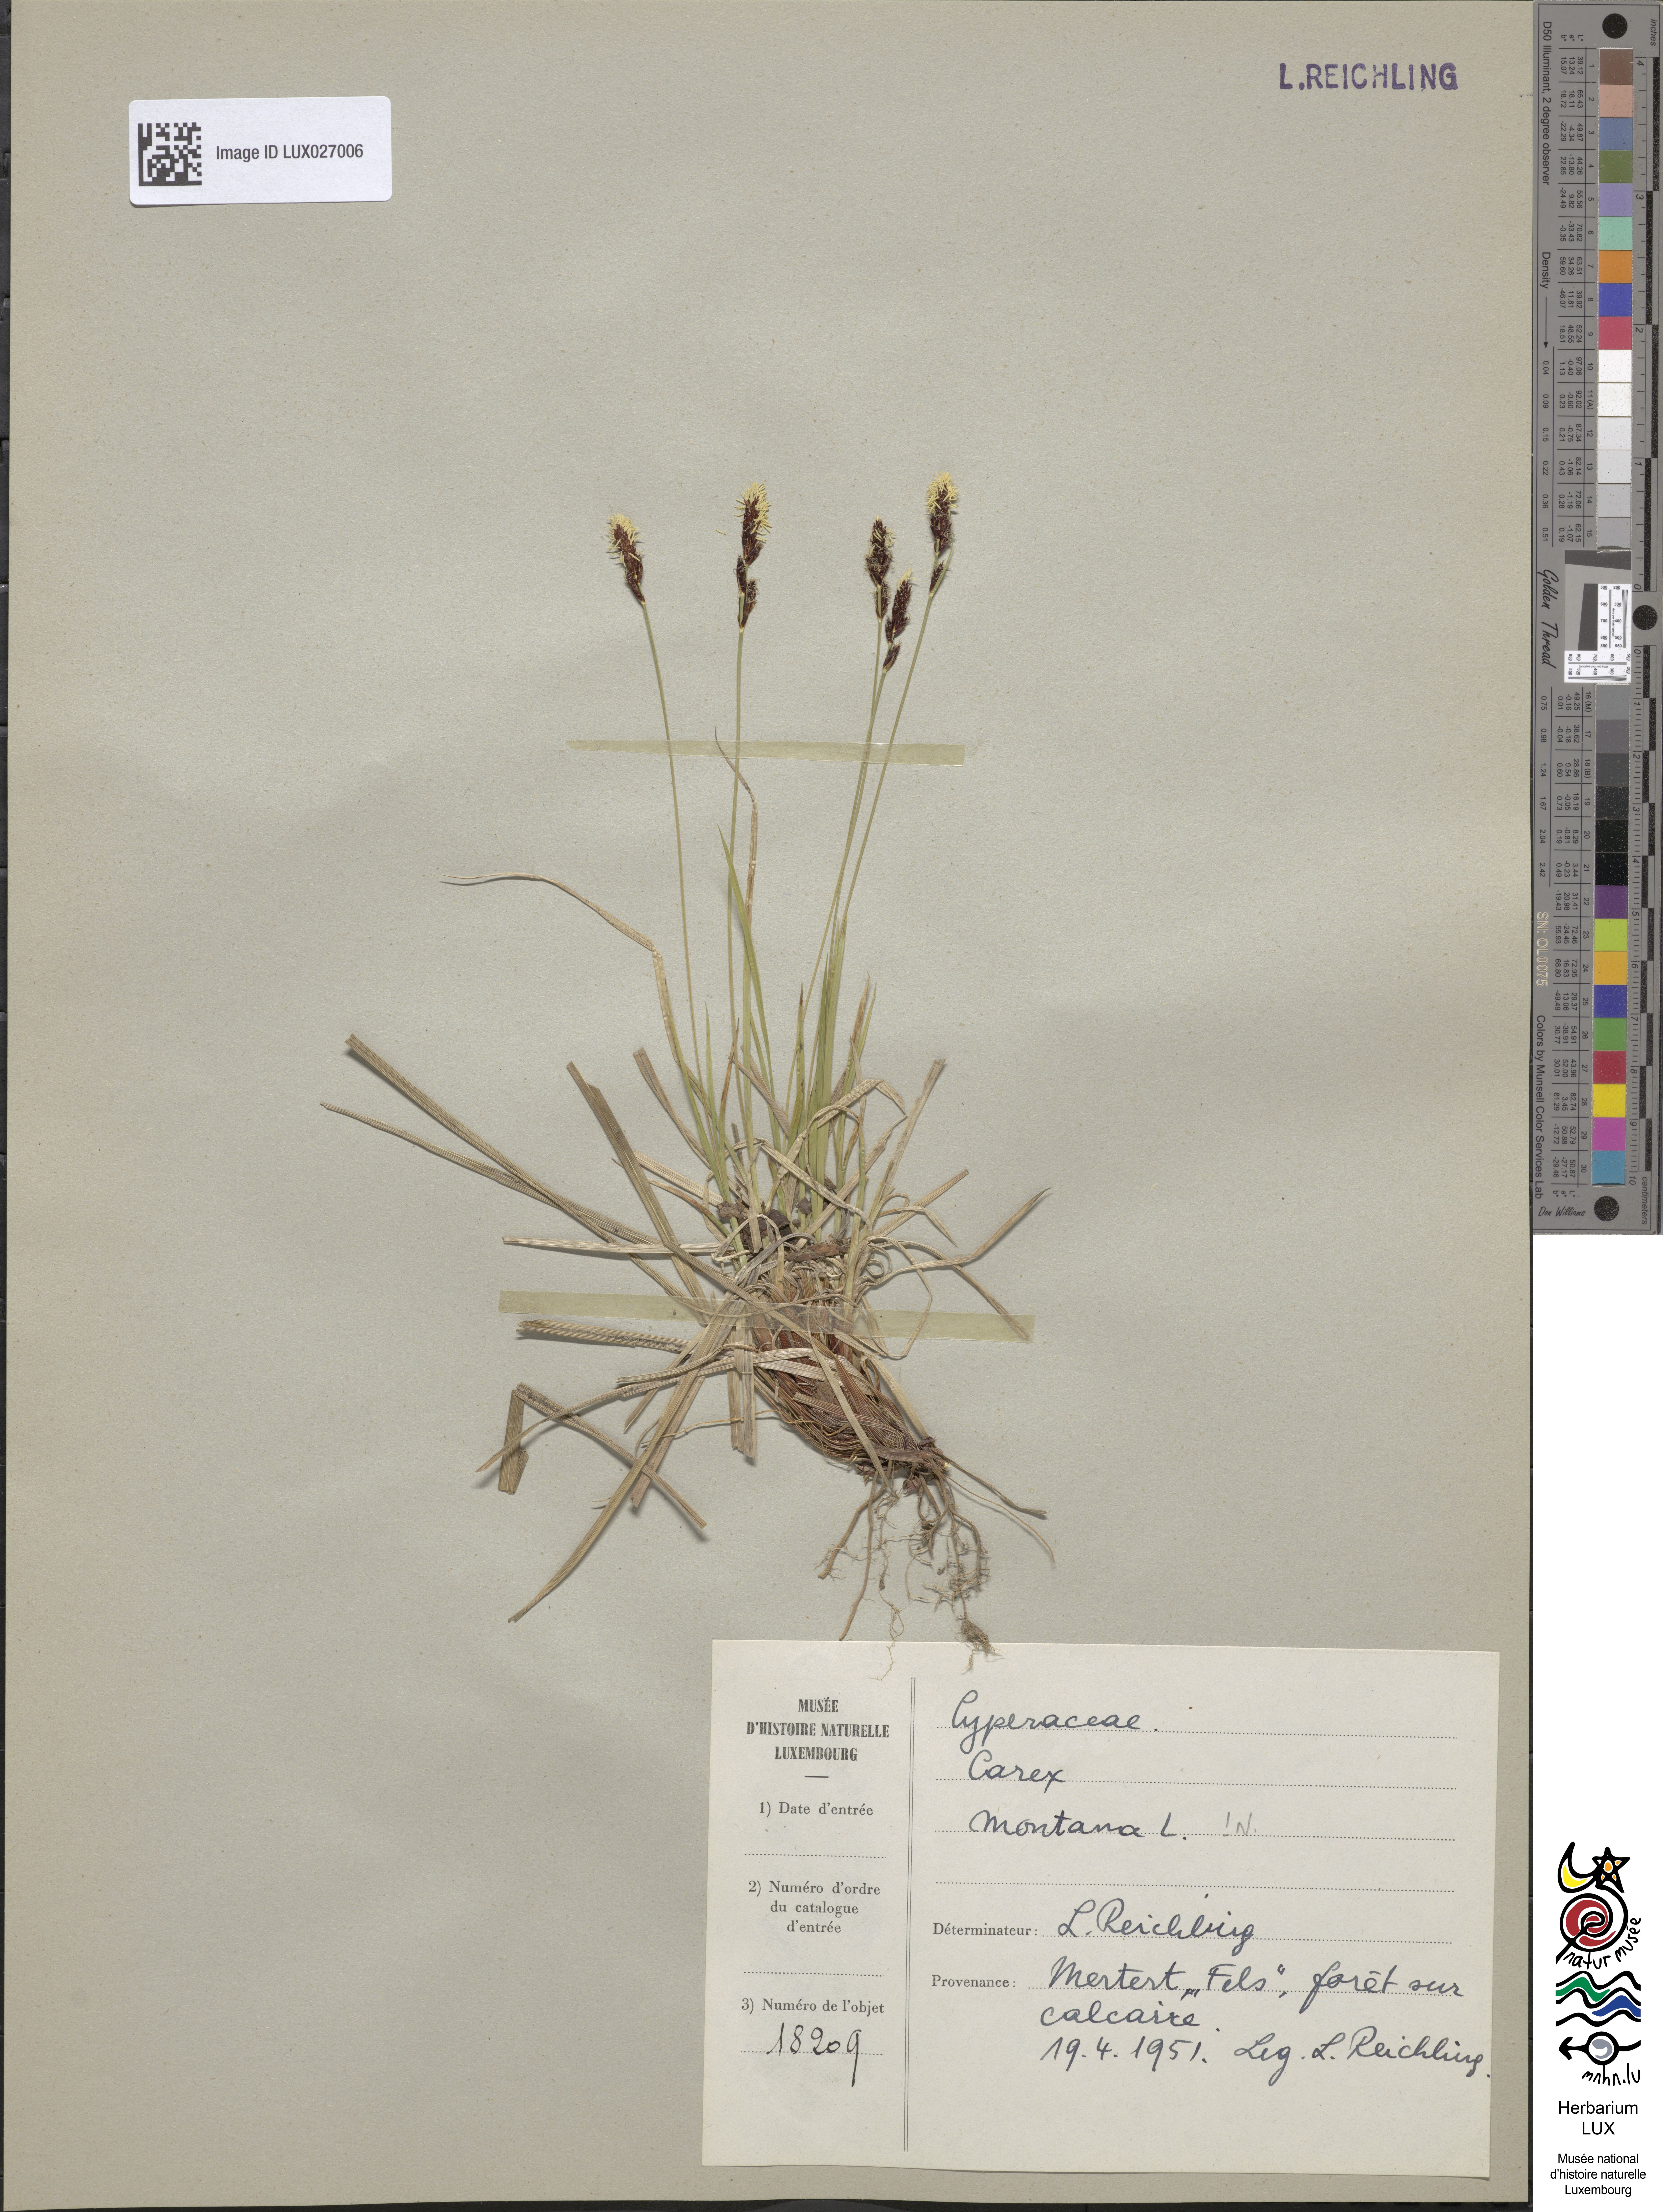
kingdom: Plantae
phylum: Tracheophyta
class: Liliopsida
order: Poales
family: Cyperaceae
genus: Carex
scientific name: Carex montana
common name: Soft-leaved sedge
